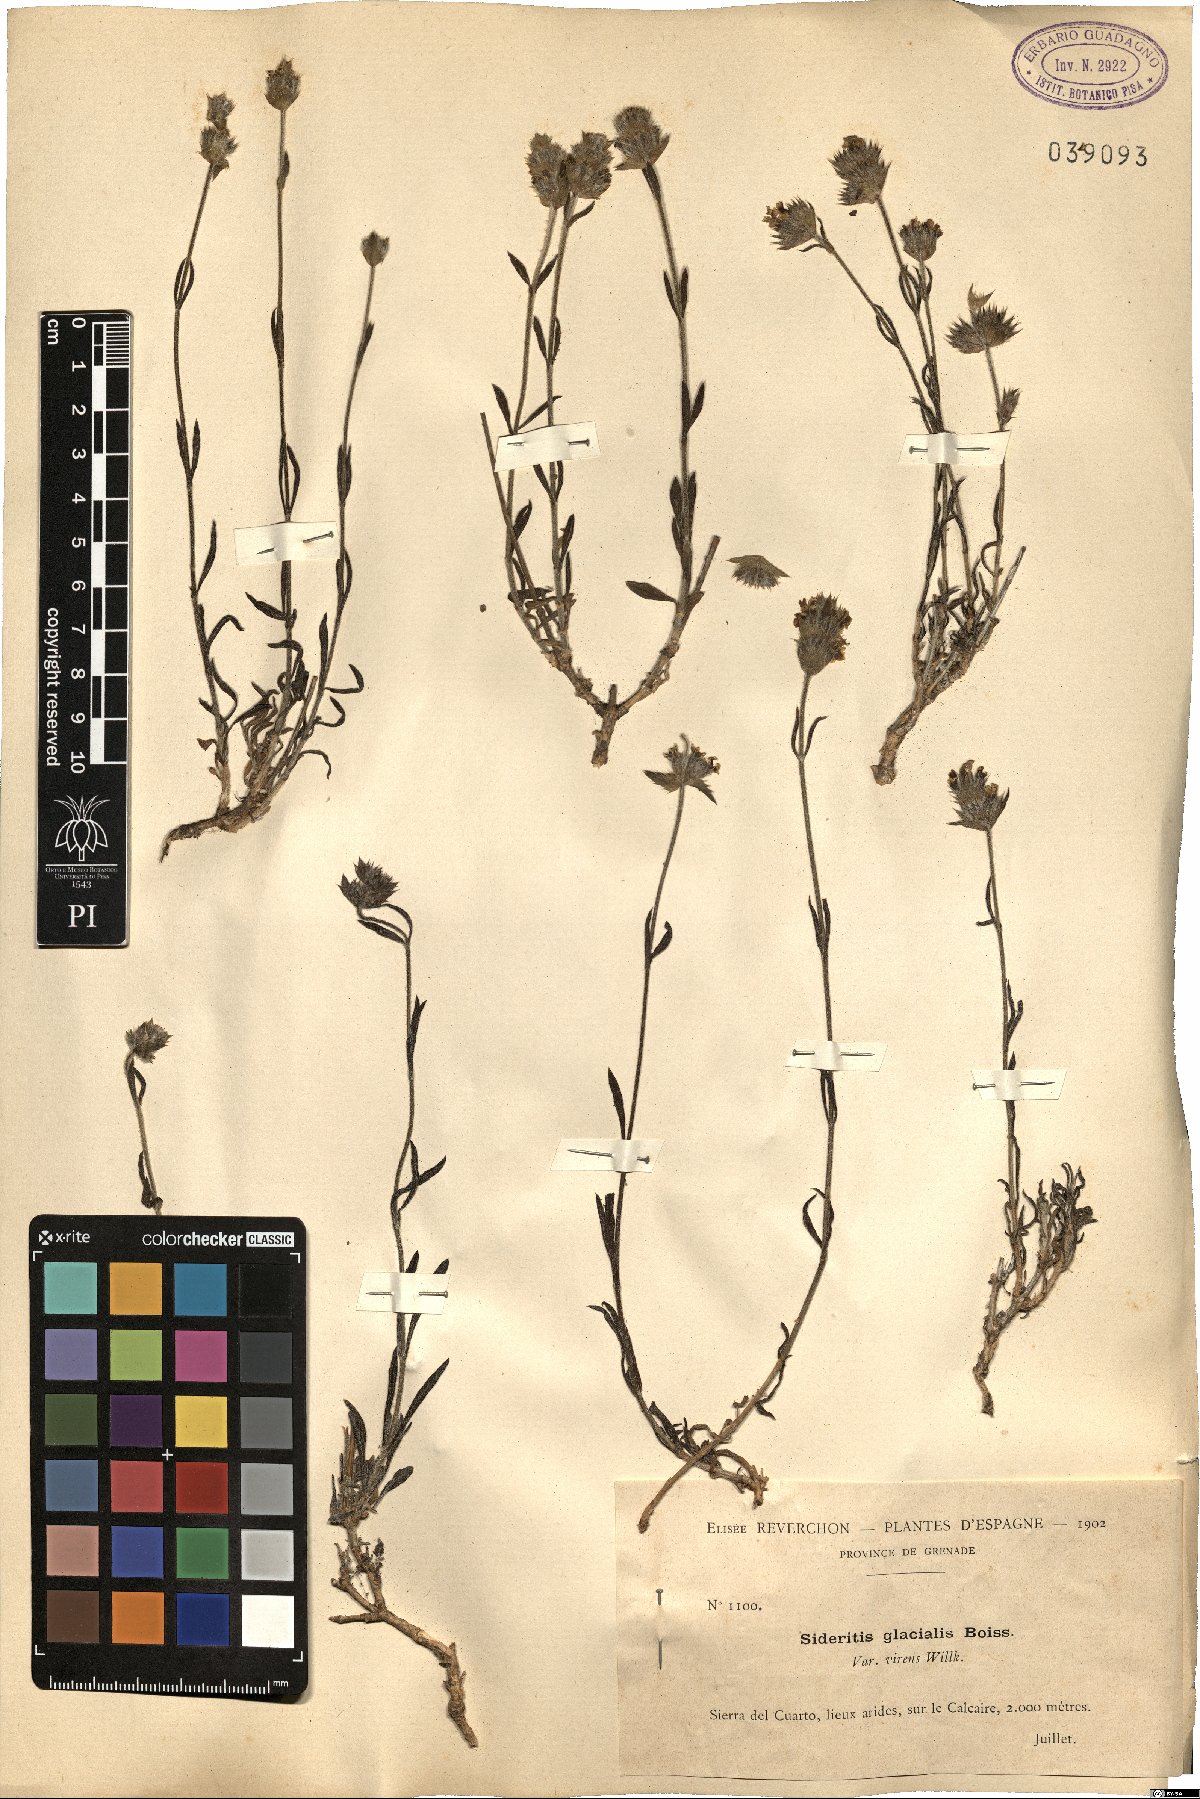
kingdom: Plantae
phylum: Tracheophyta
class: Magnoliopsida
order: Lamiales
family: Lamiaceae
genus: Sideritis
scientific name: Sideritis glacialis
